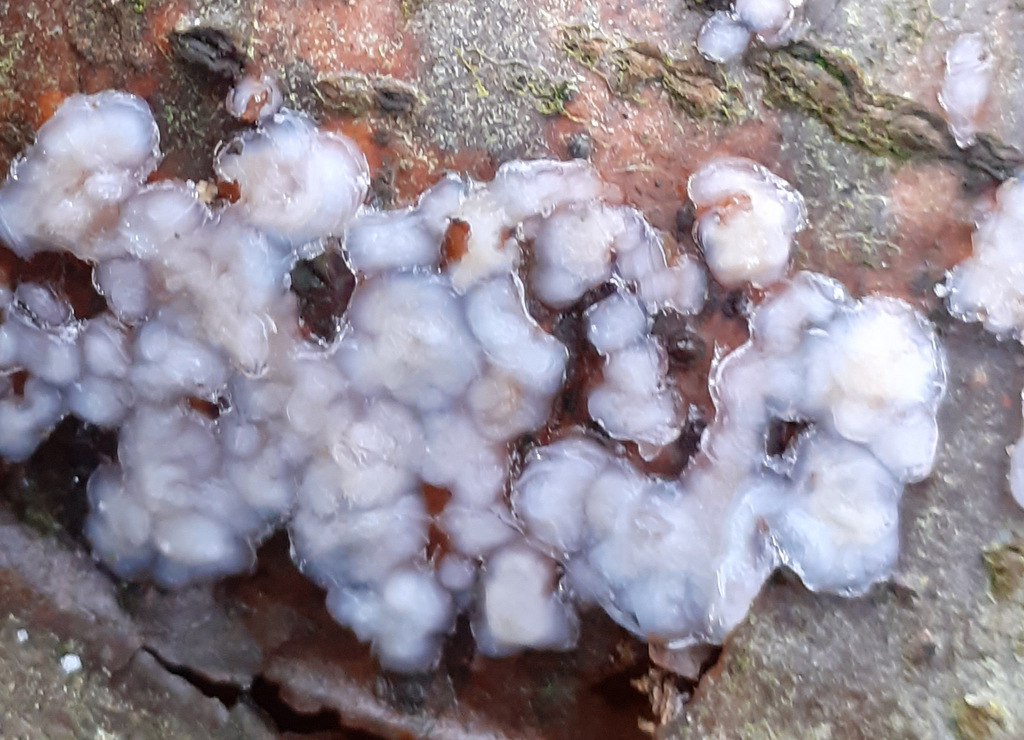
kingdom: Fungi
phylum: Basidiomycota
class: Agaricomycetes
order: Auriculariales
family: Auriculariaceae
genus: Exidia
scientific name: Exidia thuretiana
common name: hvidlig bævretop
